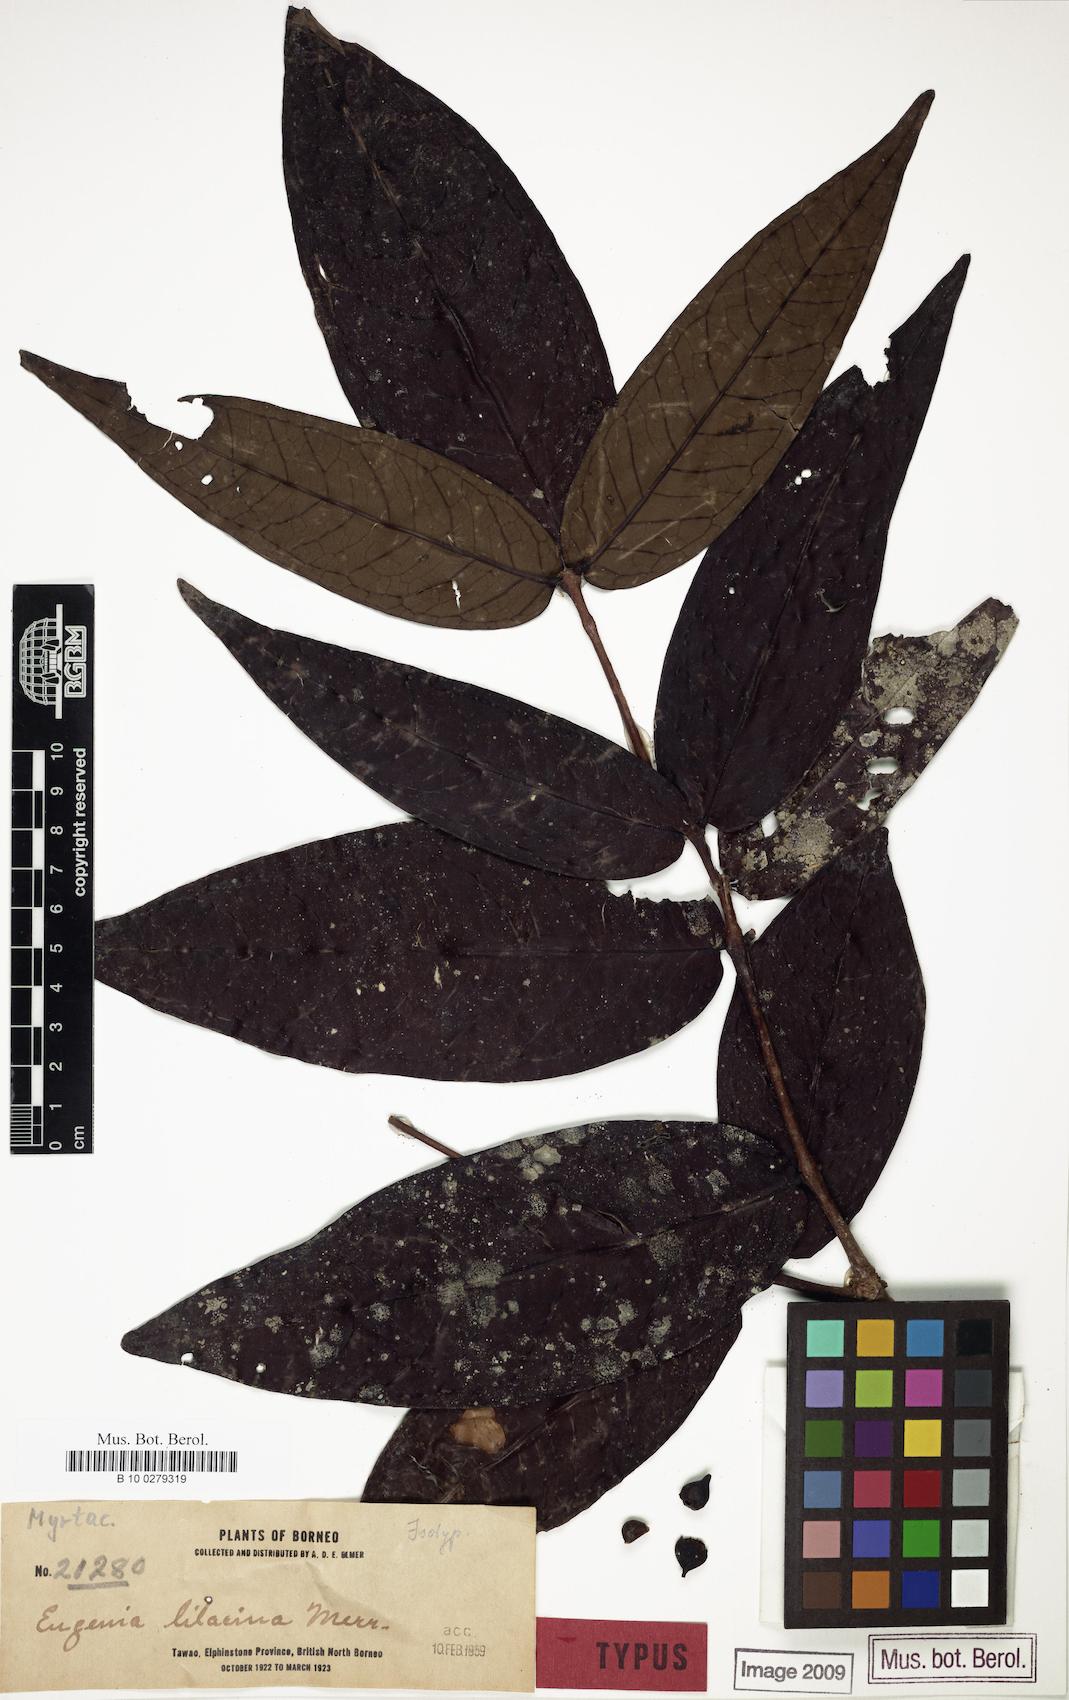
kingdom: Plantae
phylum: Tracheophyta
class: Magnoliopsida
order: Myrtales
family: Myrtaceae
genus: Syzygium
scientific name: Syzygium lilacinum
